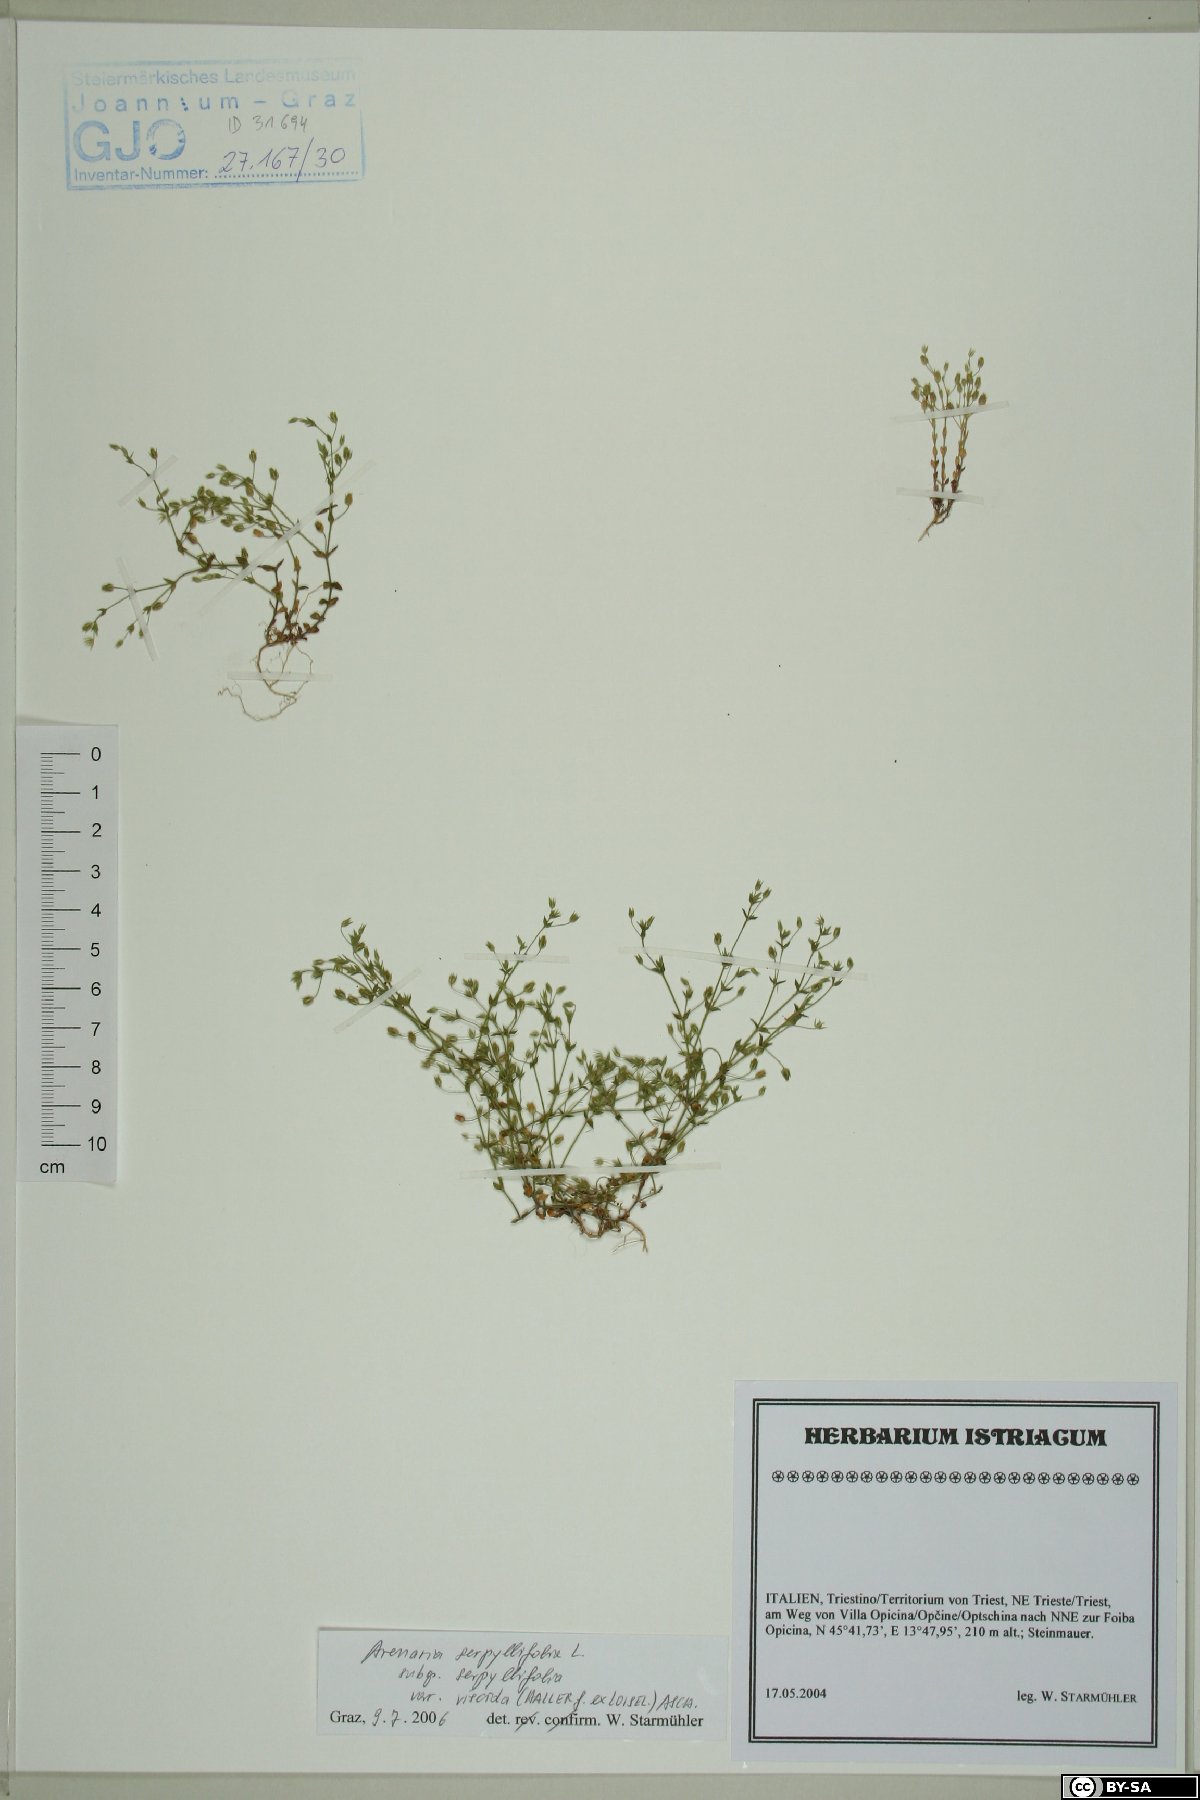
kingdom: Plantae
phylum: Tracheophyta
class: Magnoliopsida
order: Caryophyllales
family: Caryophyllaceae
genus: Arenaria
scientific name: Arenaria serpyllifolia
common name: Thyme-leaved sandwort
